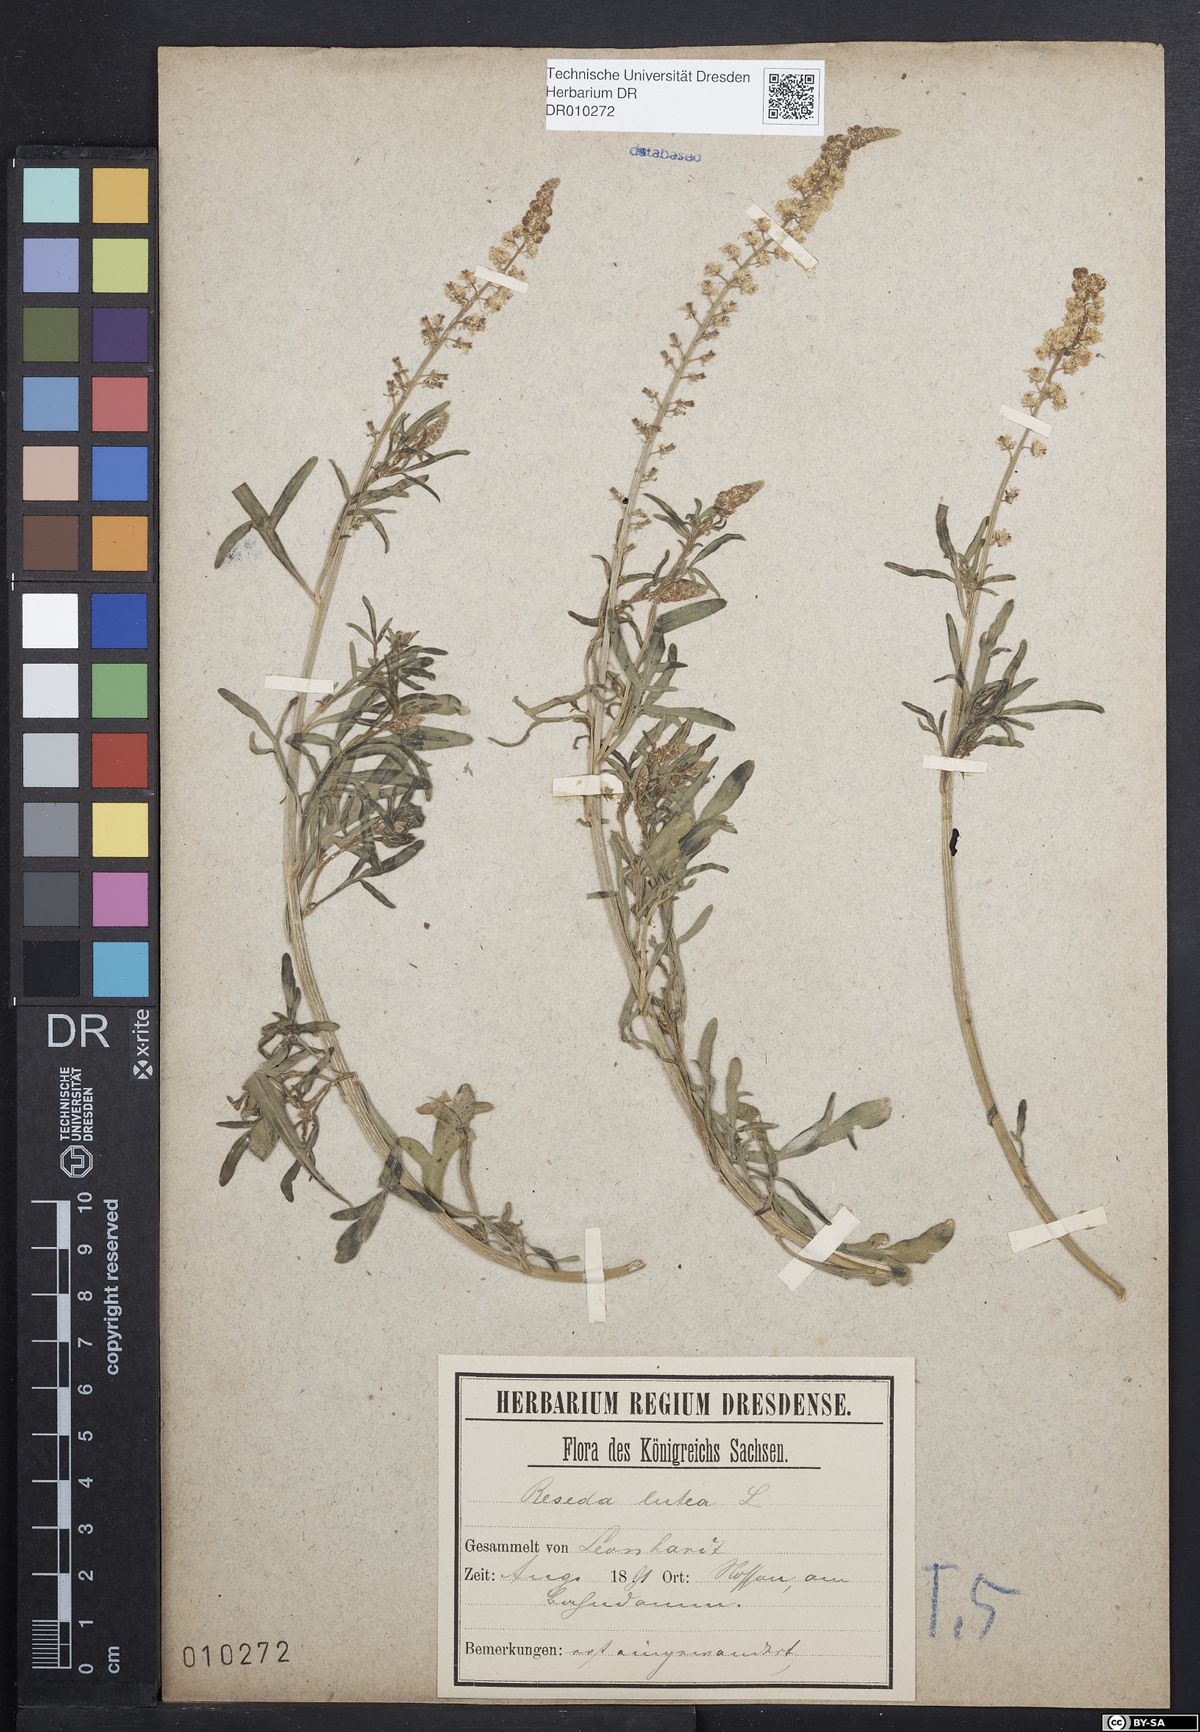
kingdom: Plantae
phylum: Tracheophyta
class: Magnoliopsida
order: Brassicales
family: Resedaceae
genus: Reseda
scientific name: Reseda lutea
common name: Wild mignonette
